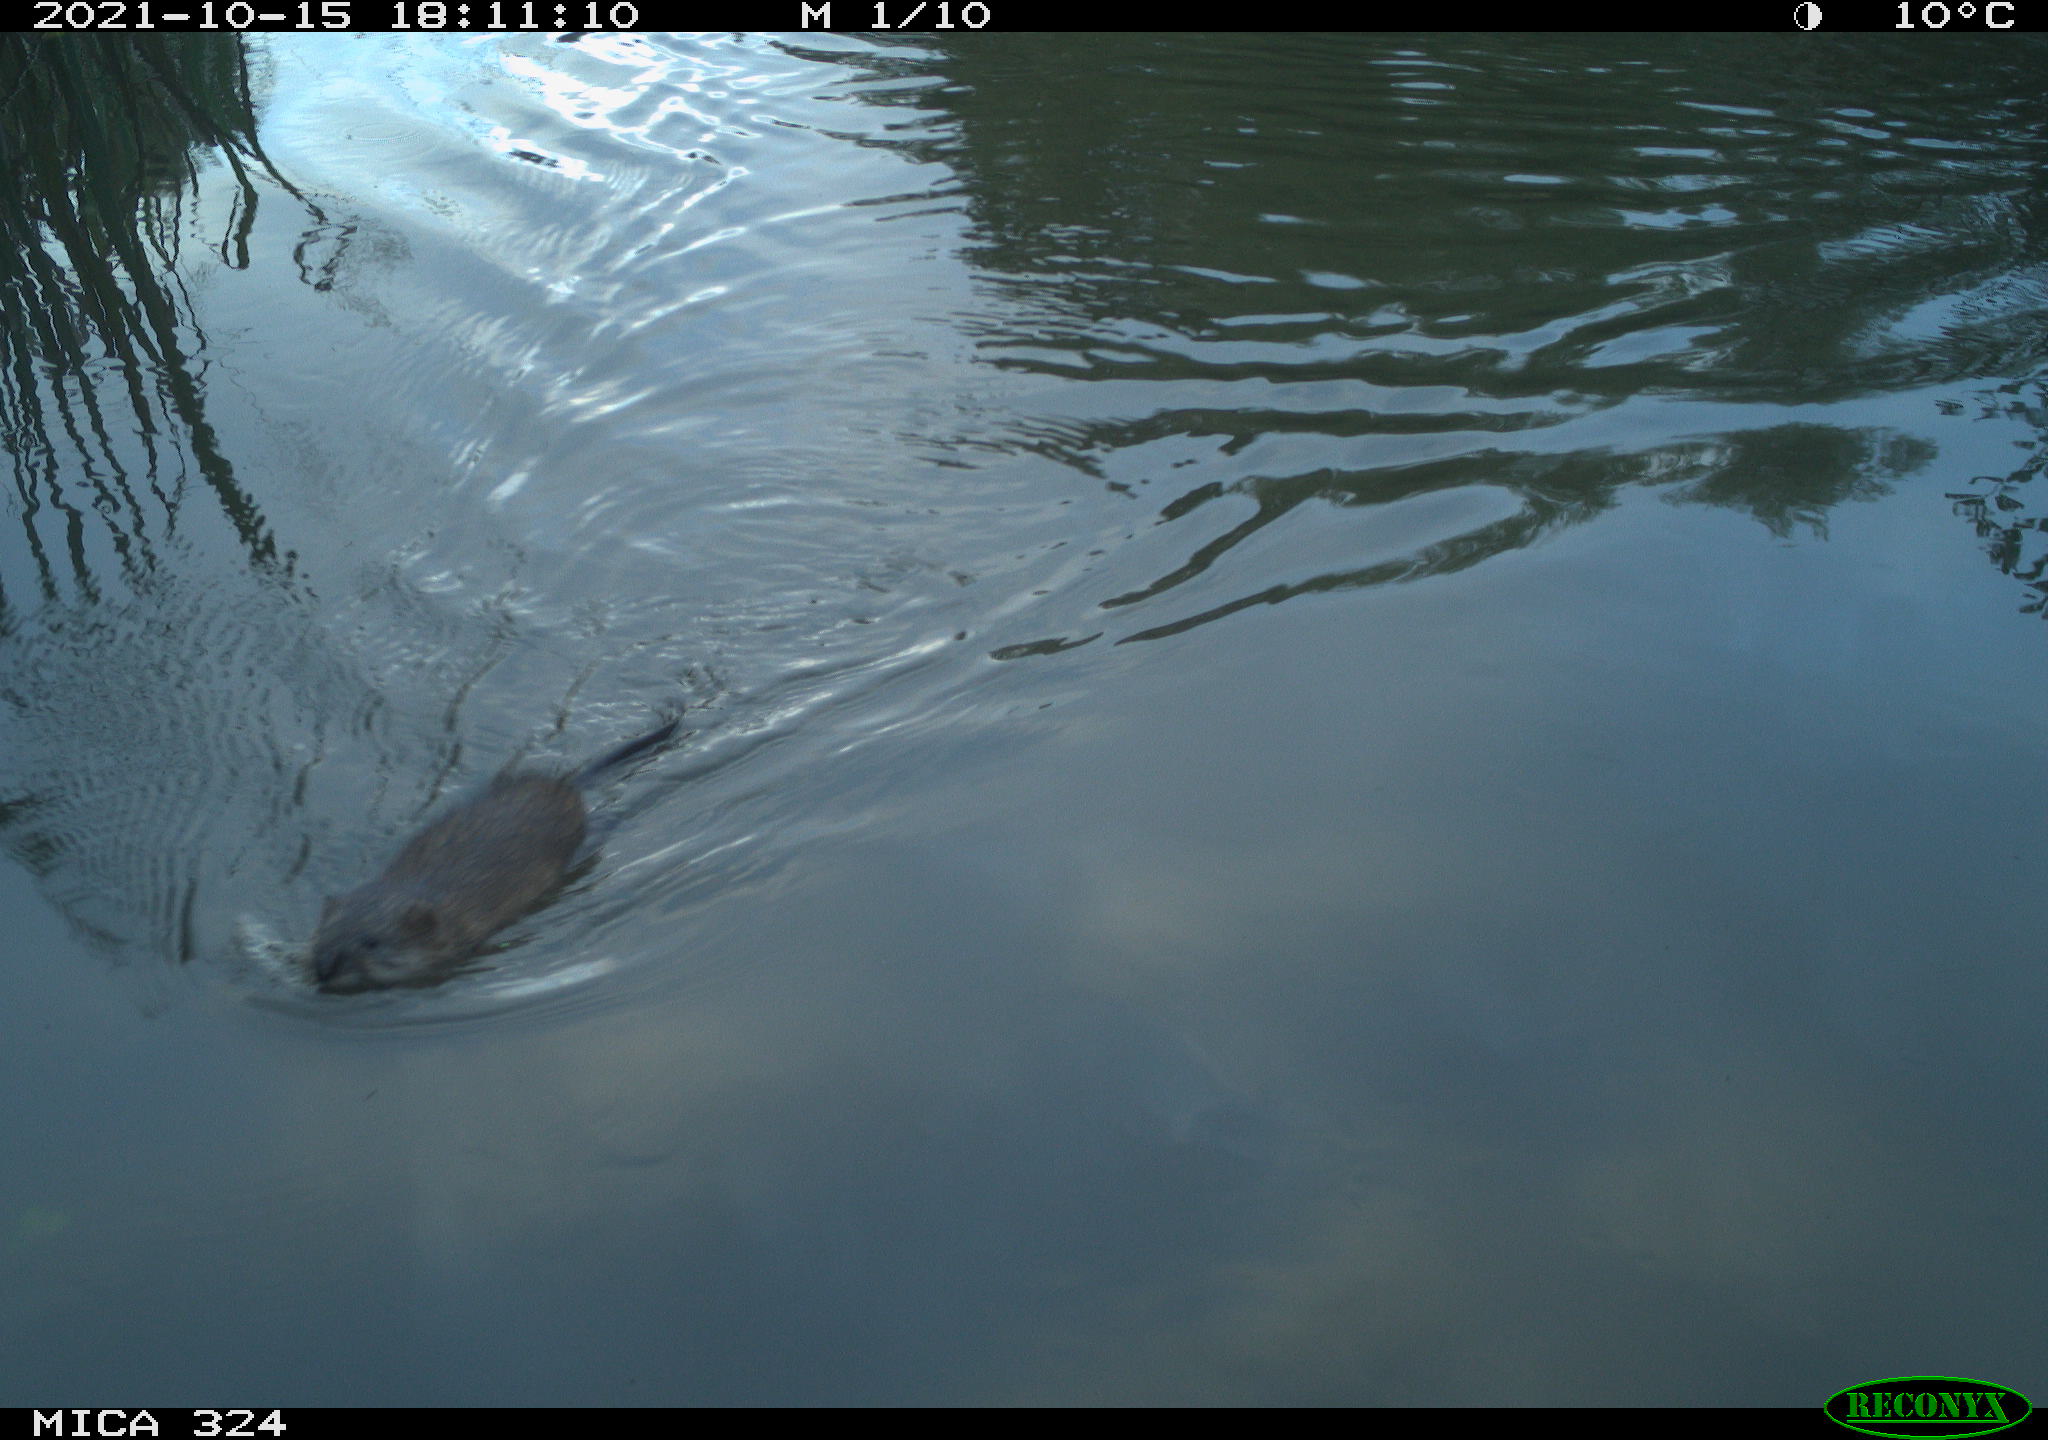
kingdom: Animalia
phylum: Chordata
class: Mammalia
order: Rodentia
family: Cricetidae
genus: Ondatra
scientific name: Ondatra zibethicus
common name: Muskrat
